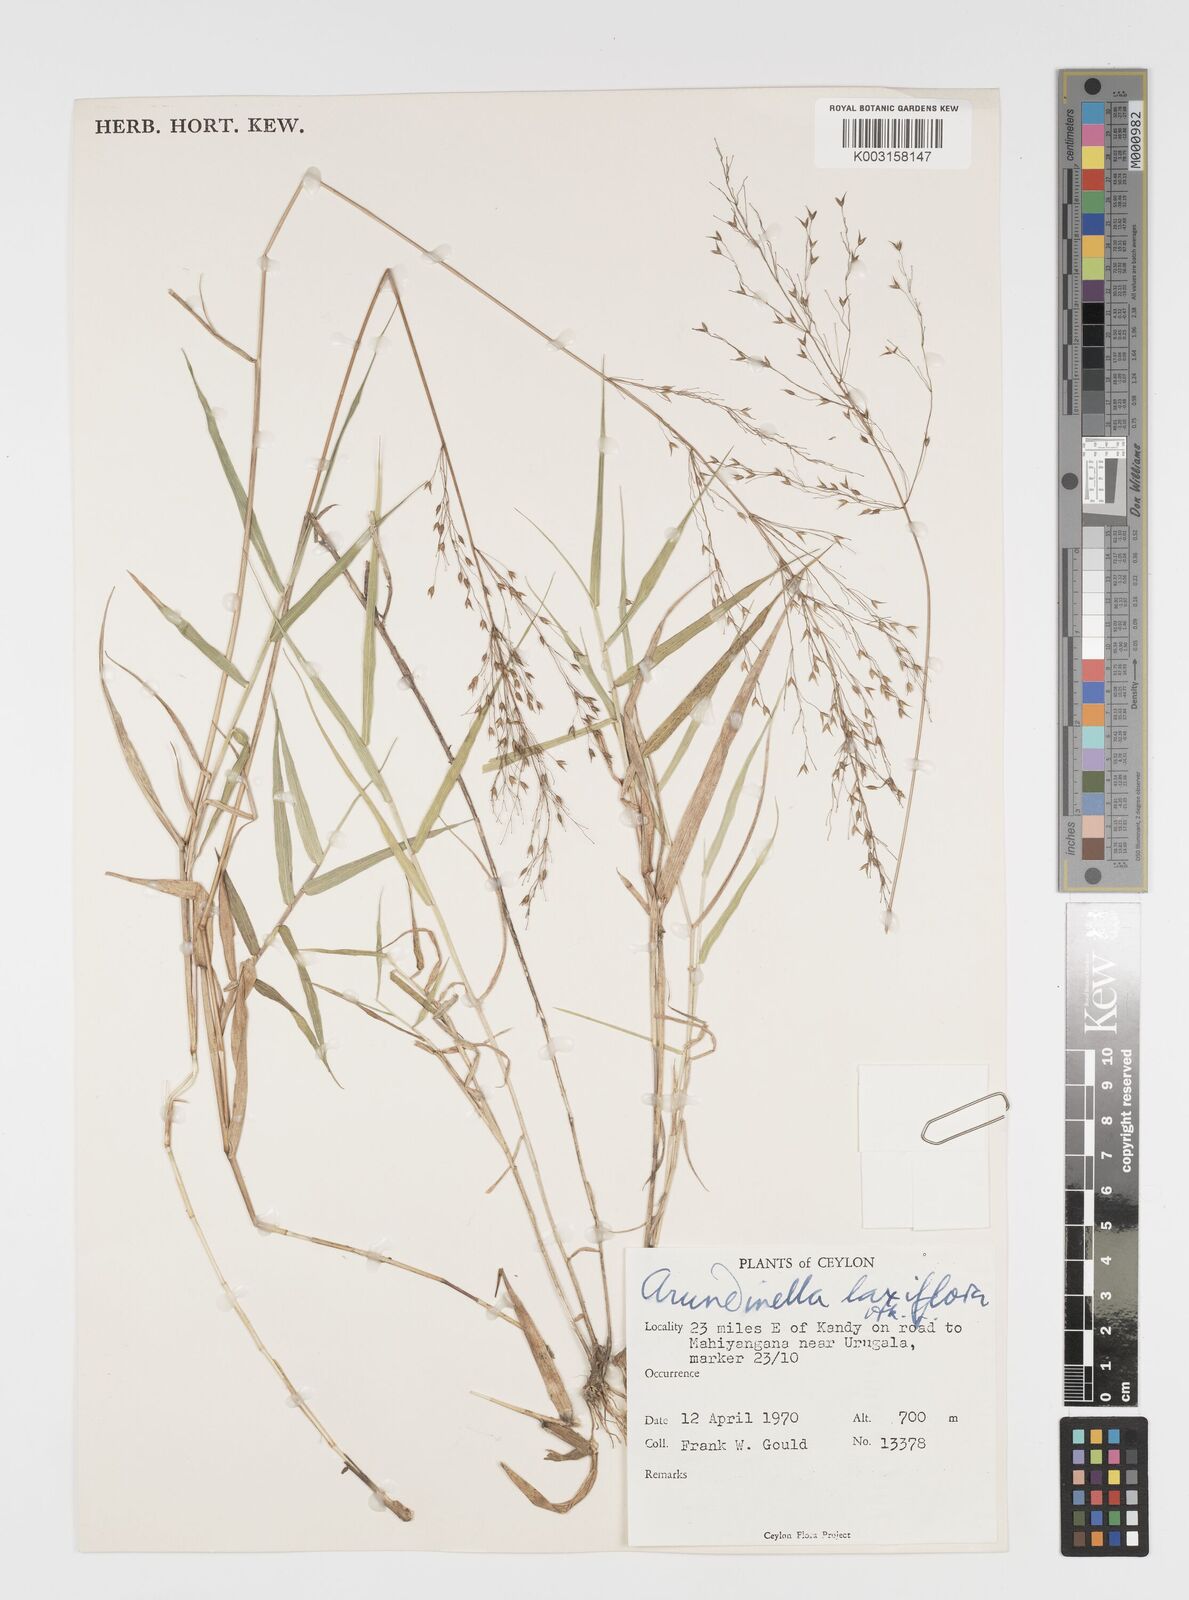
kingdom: Plantae
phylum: Tracheophyta
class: Liliopsida
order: Poales
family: Poaceae
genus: Arundinella
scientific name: Arundinella laxiflora
